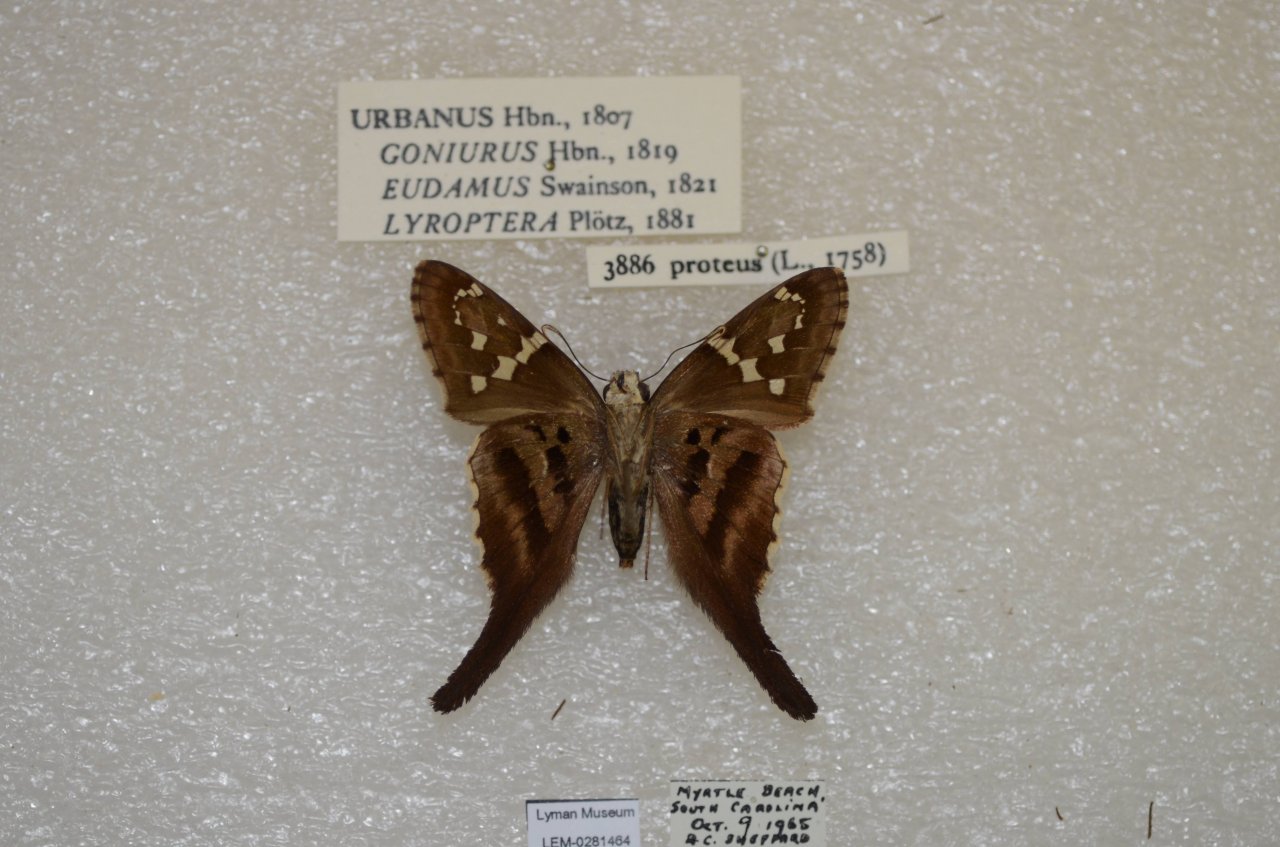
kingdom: Animalia
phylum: Arthropoda
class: Insecta
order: Lepidoptera
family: Hesperiidae
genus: Urbanus
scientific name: Urbanus proteus
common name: Long-tailed Skipper
